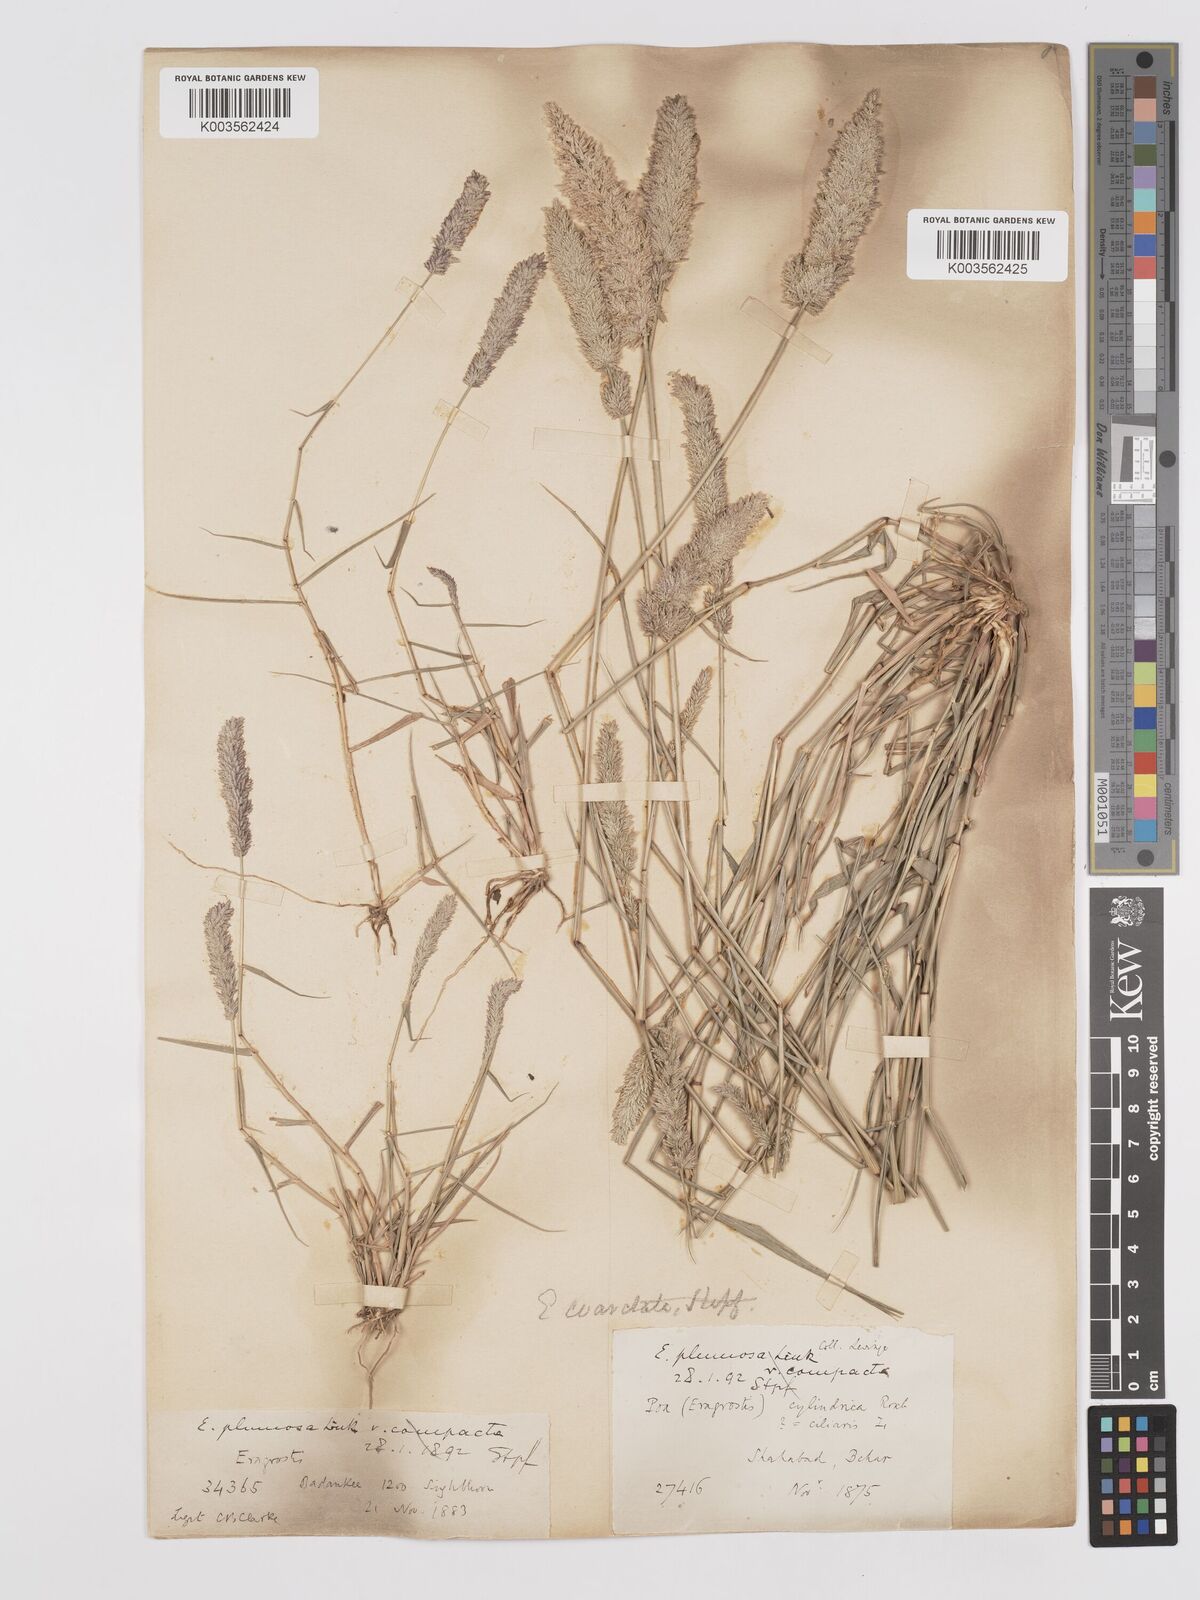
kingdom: Plantae
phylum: Tracheophyta
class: Liliopsida
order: Poales
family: Poaceae
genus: Eragrostis
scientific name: Eragrostis coarctata
